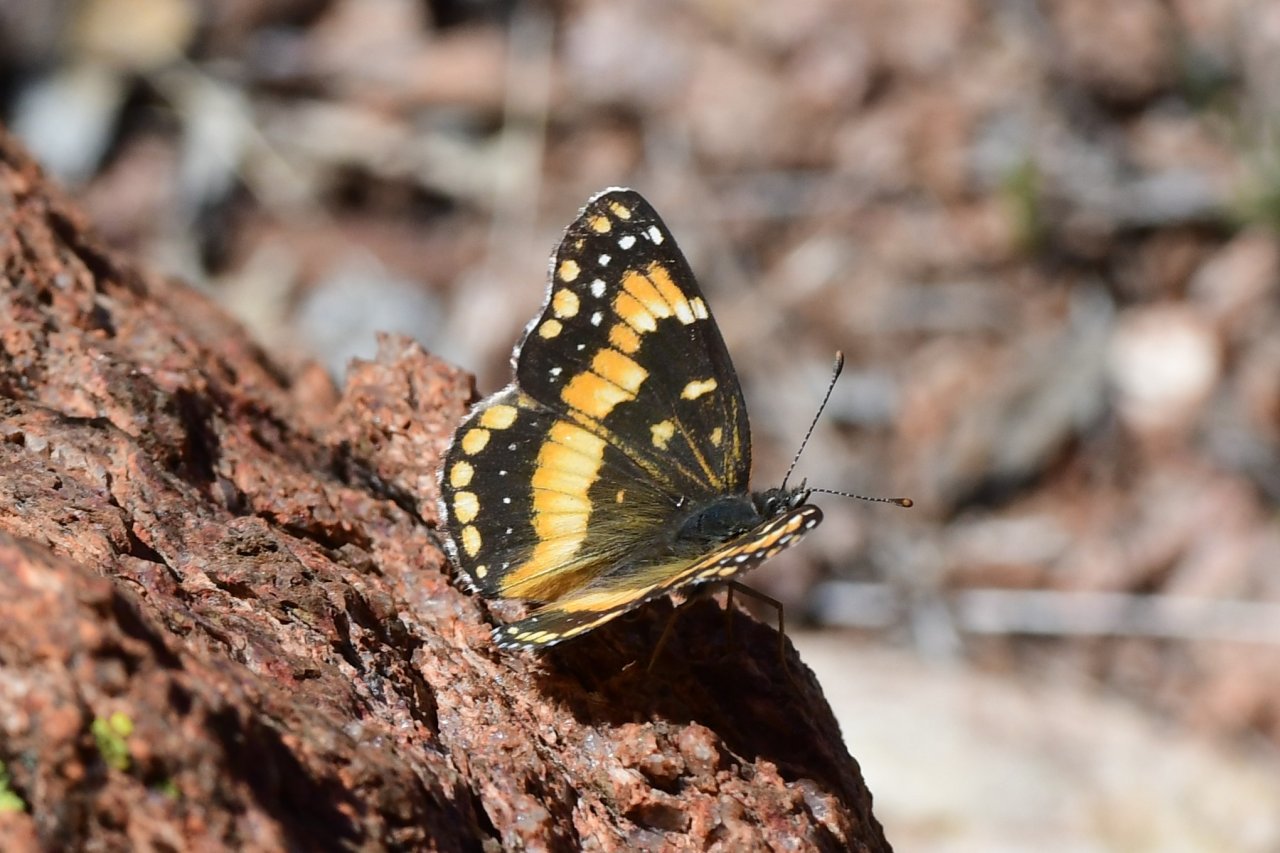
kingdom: Animalia
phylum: Arthropoda
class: Insecta
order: Lepidoptera
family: Nymphalidae
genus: Chlosyne
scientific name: Chlosyne californica
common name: California Patch
